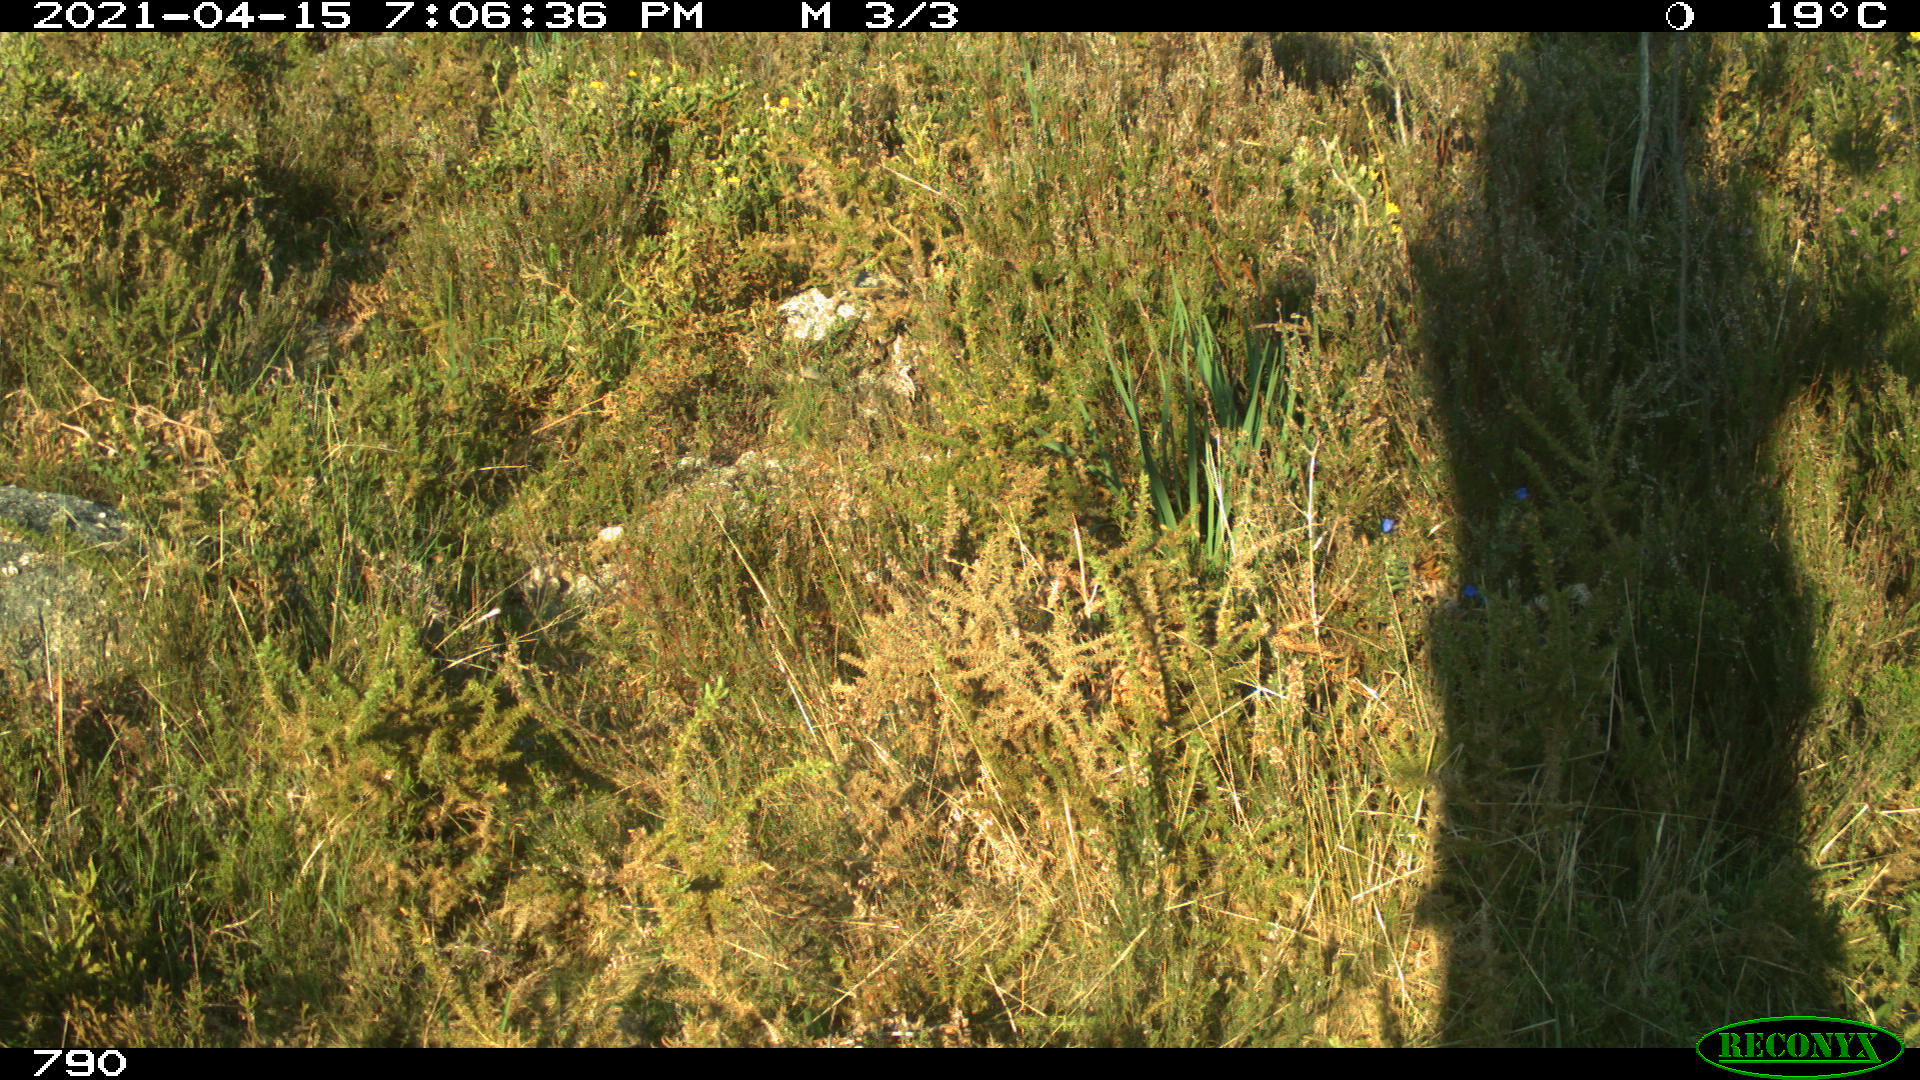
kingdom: Animalia
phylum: Chordata
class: Mammalia
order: Artiodactyla
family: Bovidae
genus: Bos
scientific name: Bos taurus
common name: Domesticated cattle
